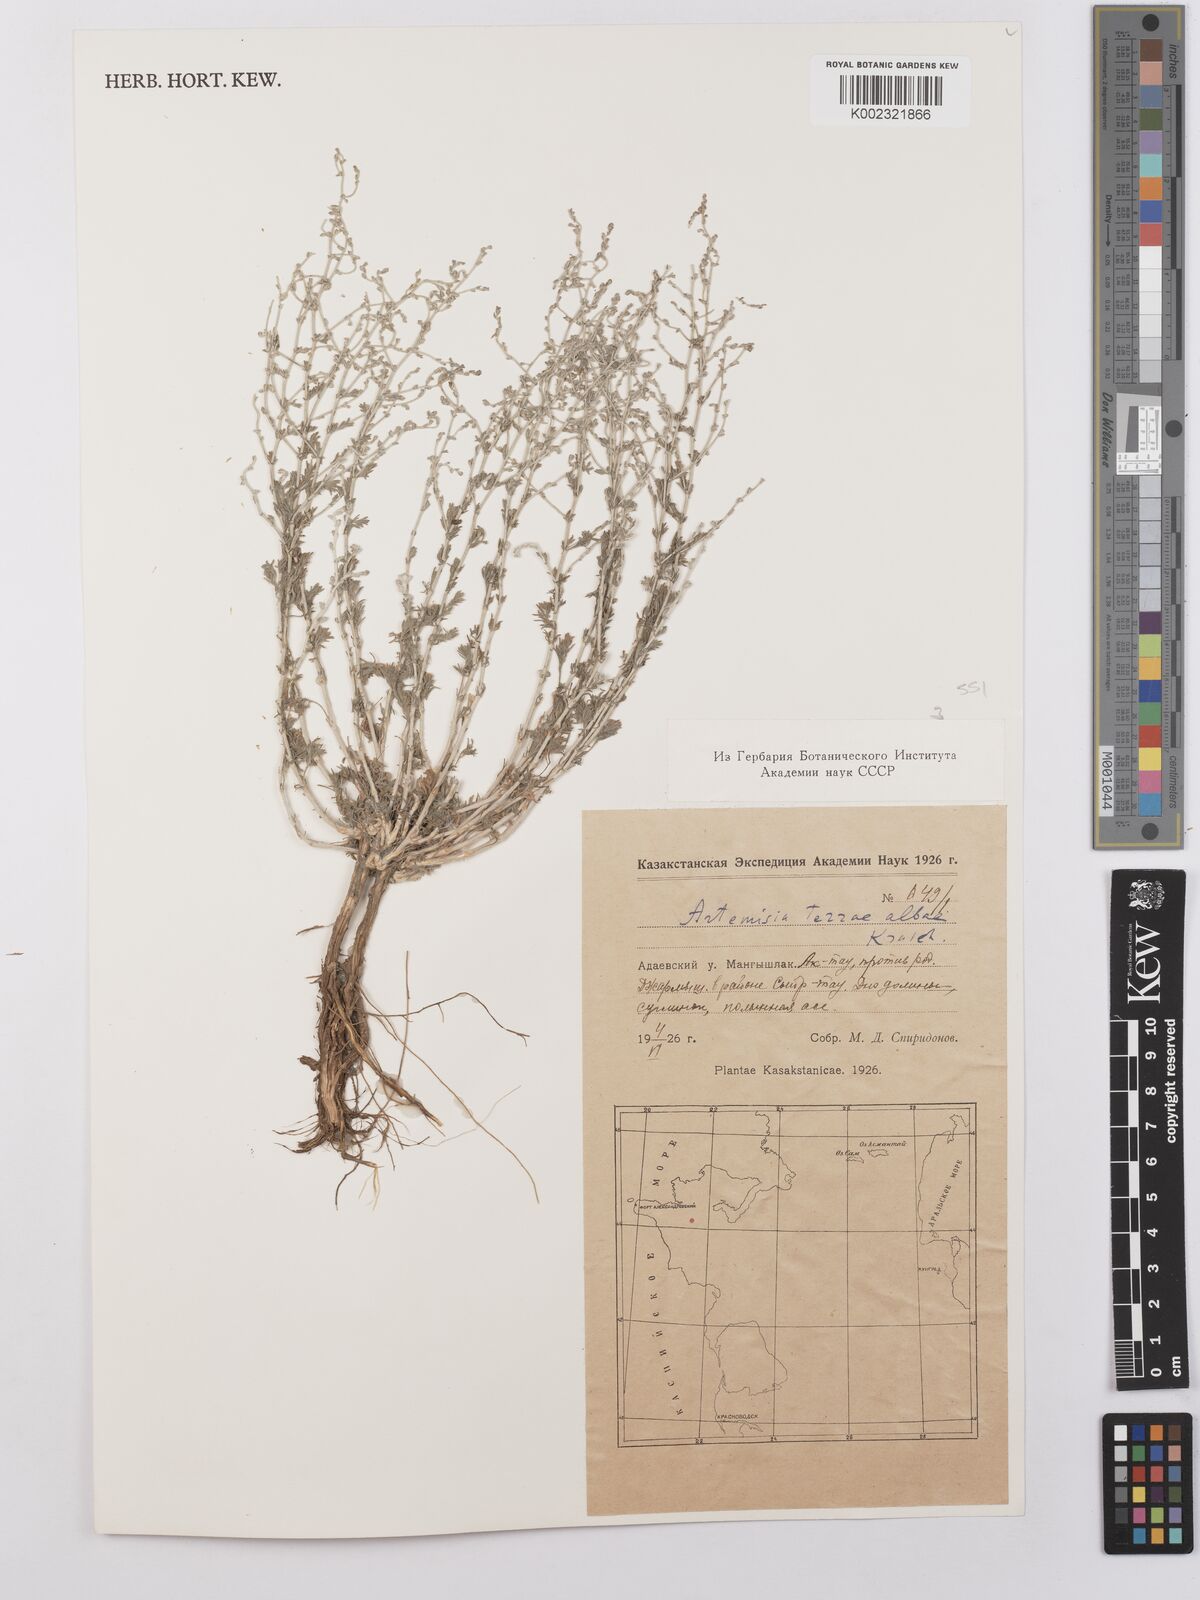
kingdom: Plantae
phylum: Tracheophyta
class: Magnoliopsida
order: Asterales
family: Asteraceae
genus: Artemisia
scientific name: Artemisia terrae-albae
